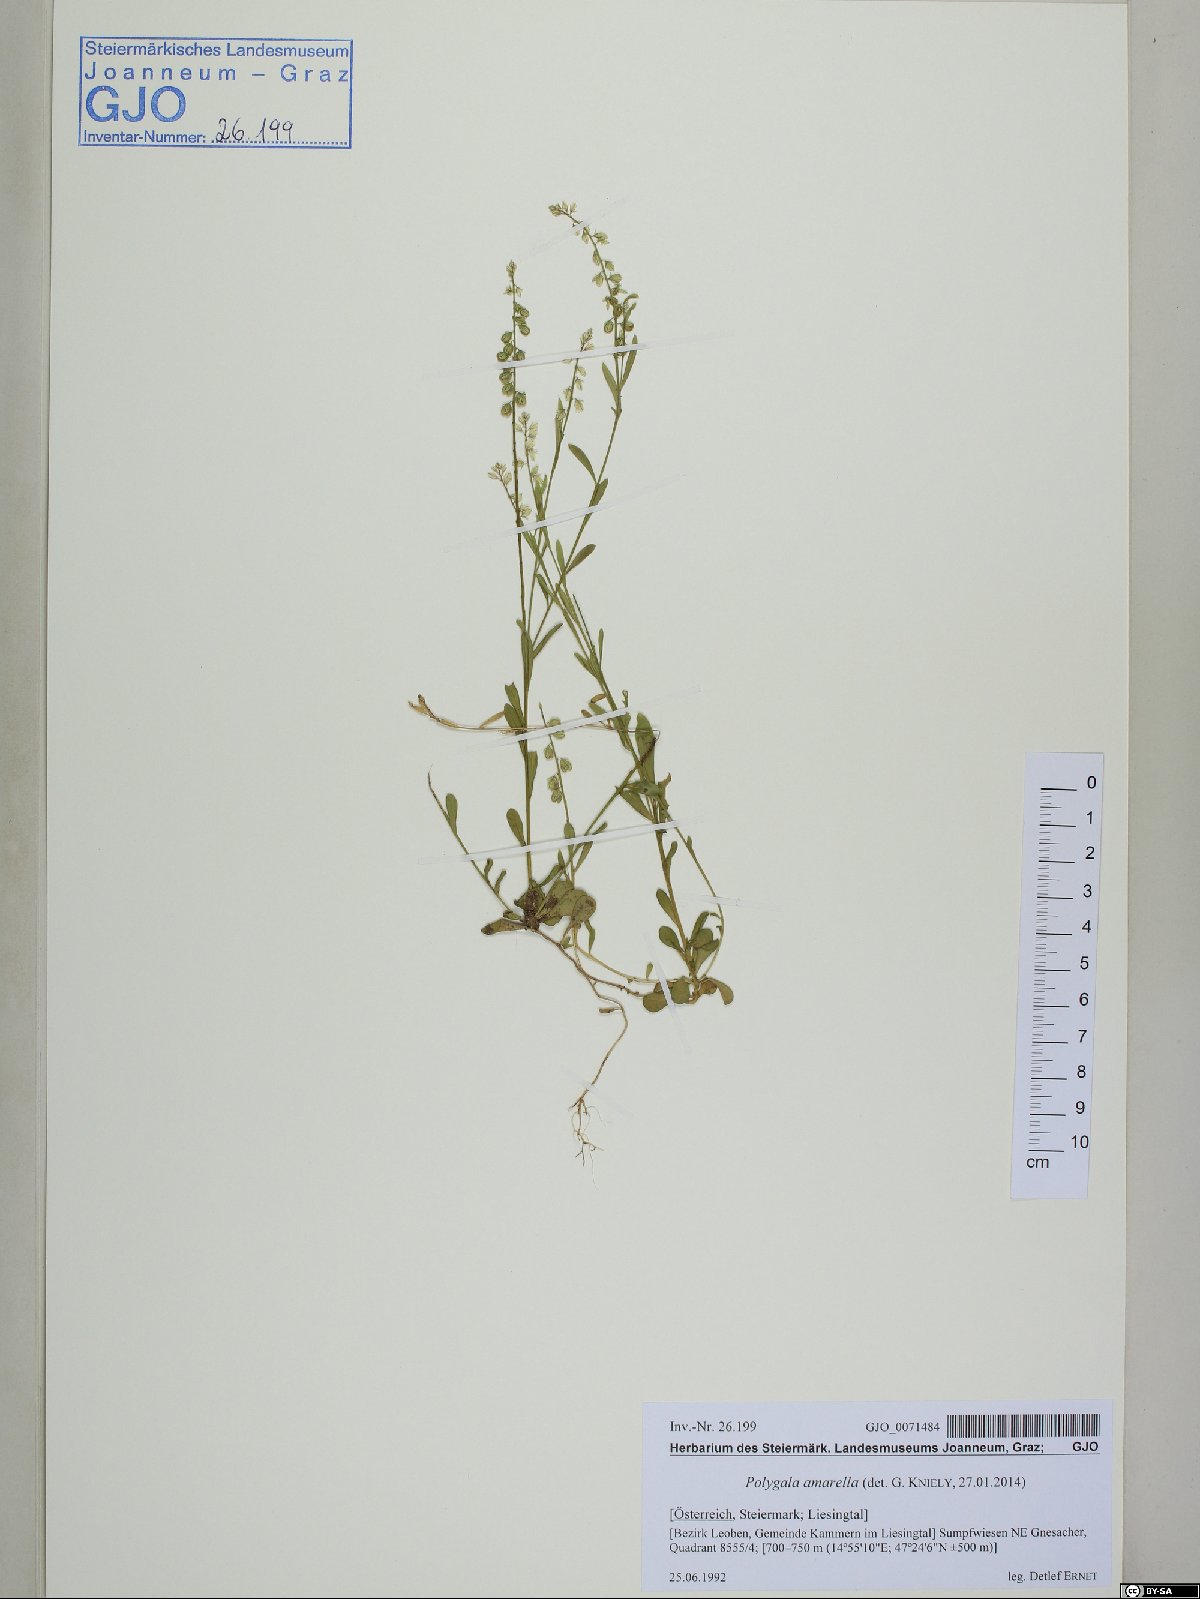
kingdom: Plantae
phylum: Tracheophyta
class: Magnoliopsida
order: Fabales
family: Polygalaceae
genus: Polygala
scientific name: Polygala amarella
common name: Dwarf milkwort
